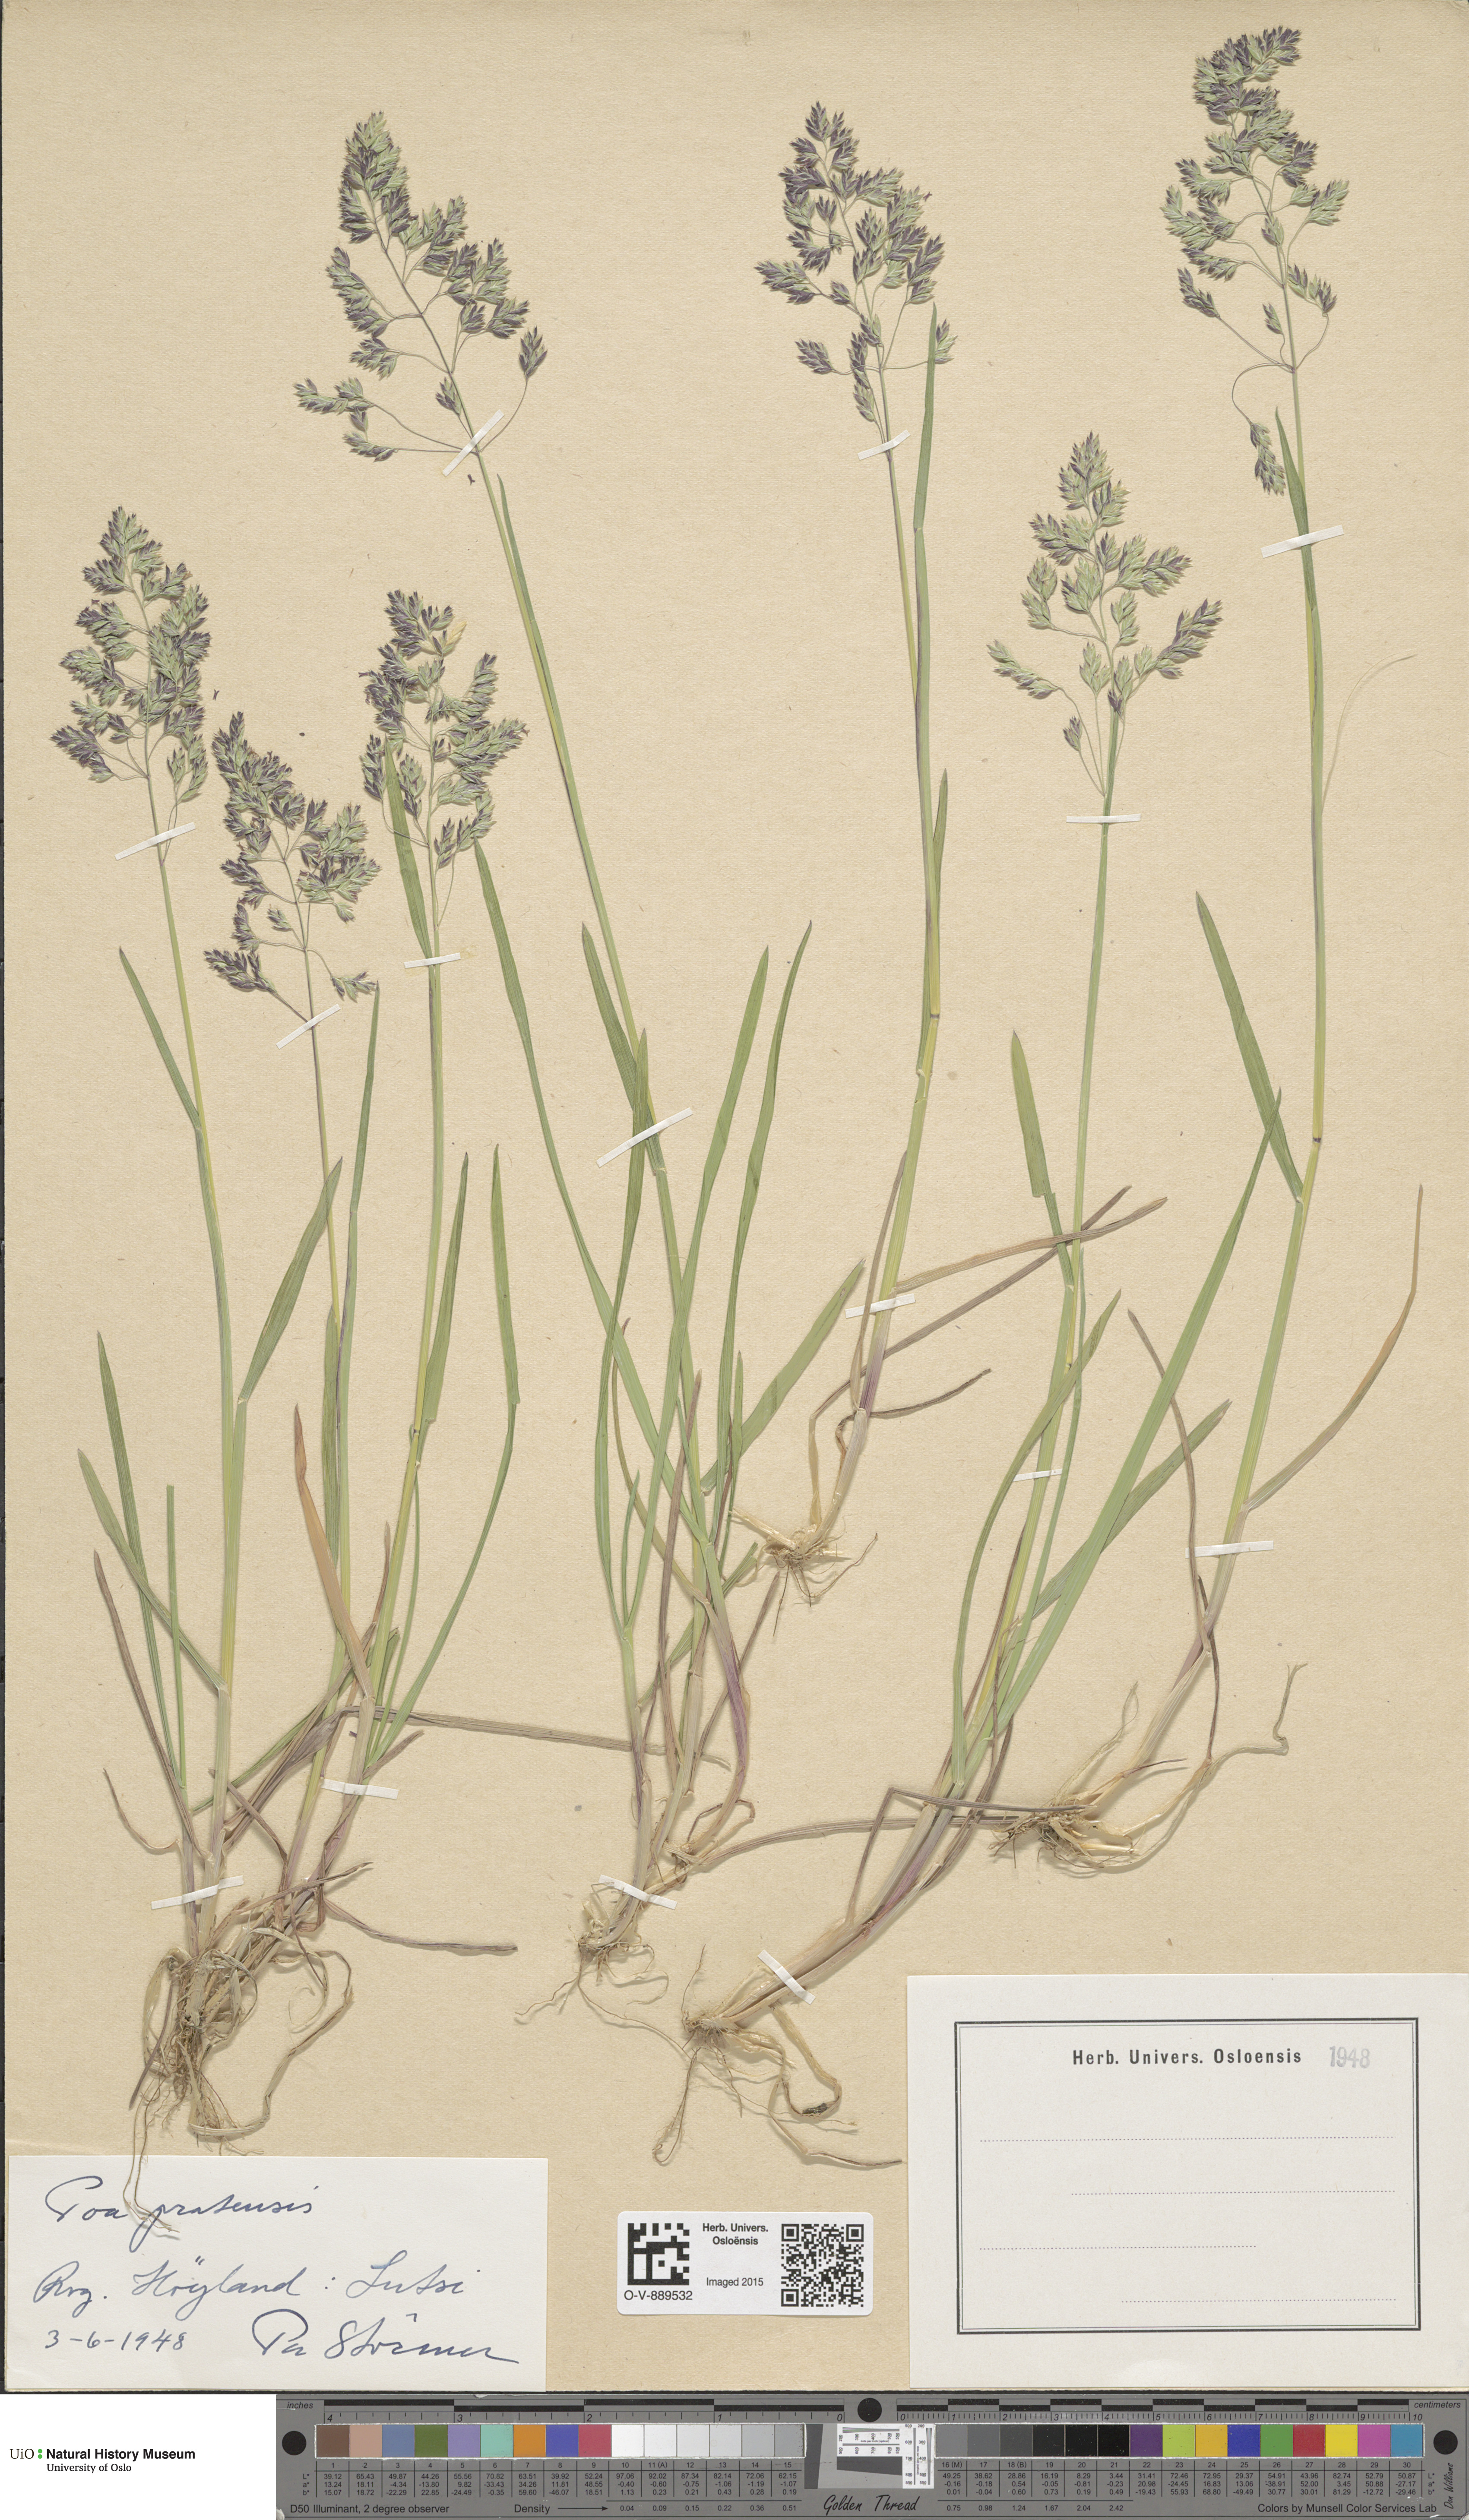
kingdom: Plantae
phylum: Tracheophyta
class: Liliopsida
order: Poales
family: Poaceae
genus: Poa
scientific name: Poa pratensis
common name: Kentucky bluegrass
